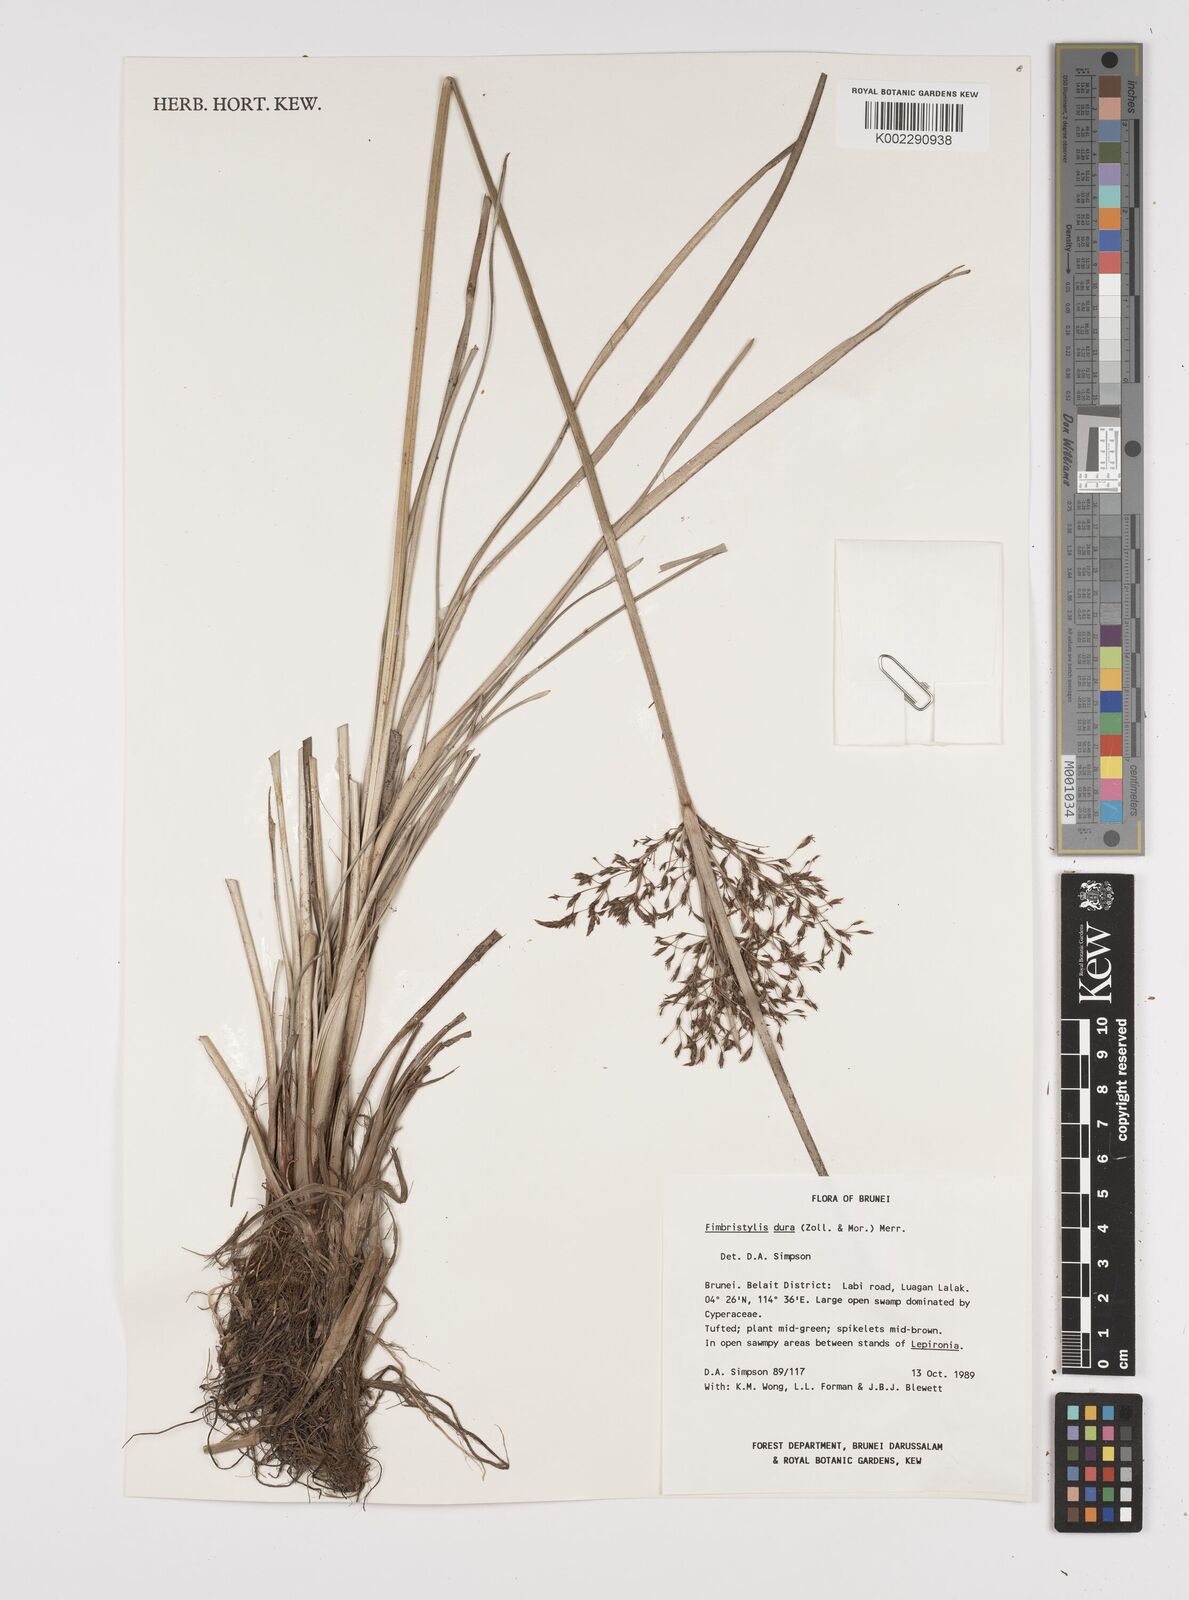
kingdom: Plantae
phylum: Tracheophyta
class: Liliopsida
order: Poales
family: Cyperaceae
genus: Fimbristylis
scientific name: Fimbristylis dura
